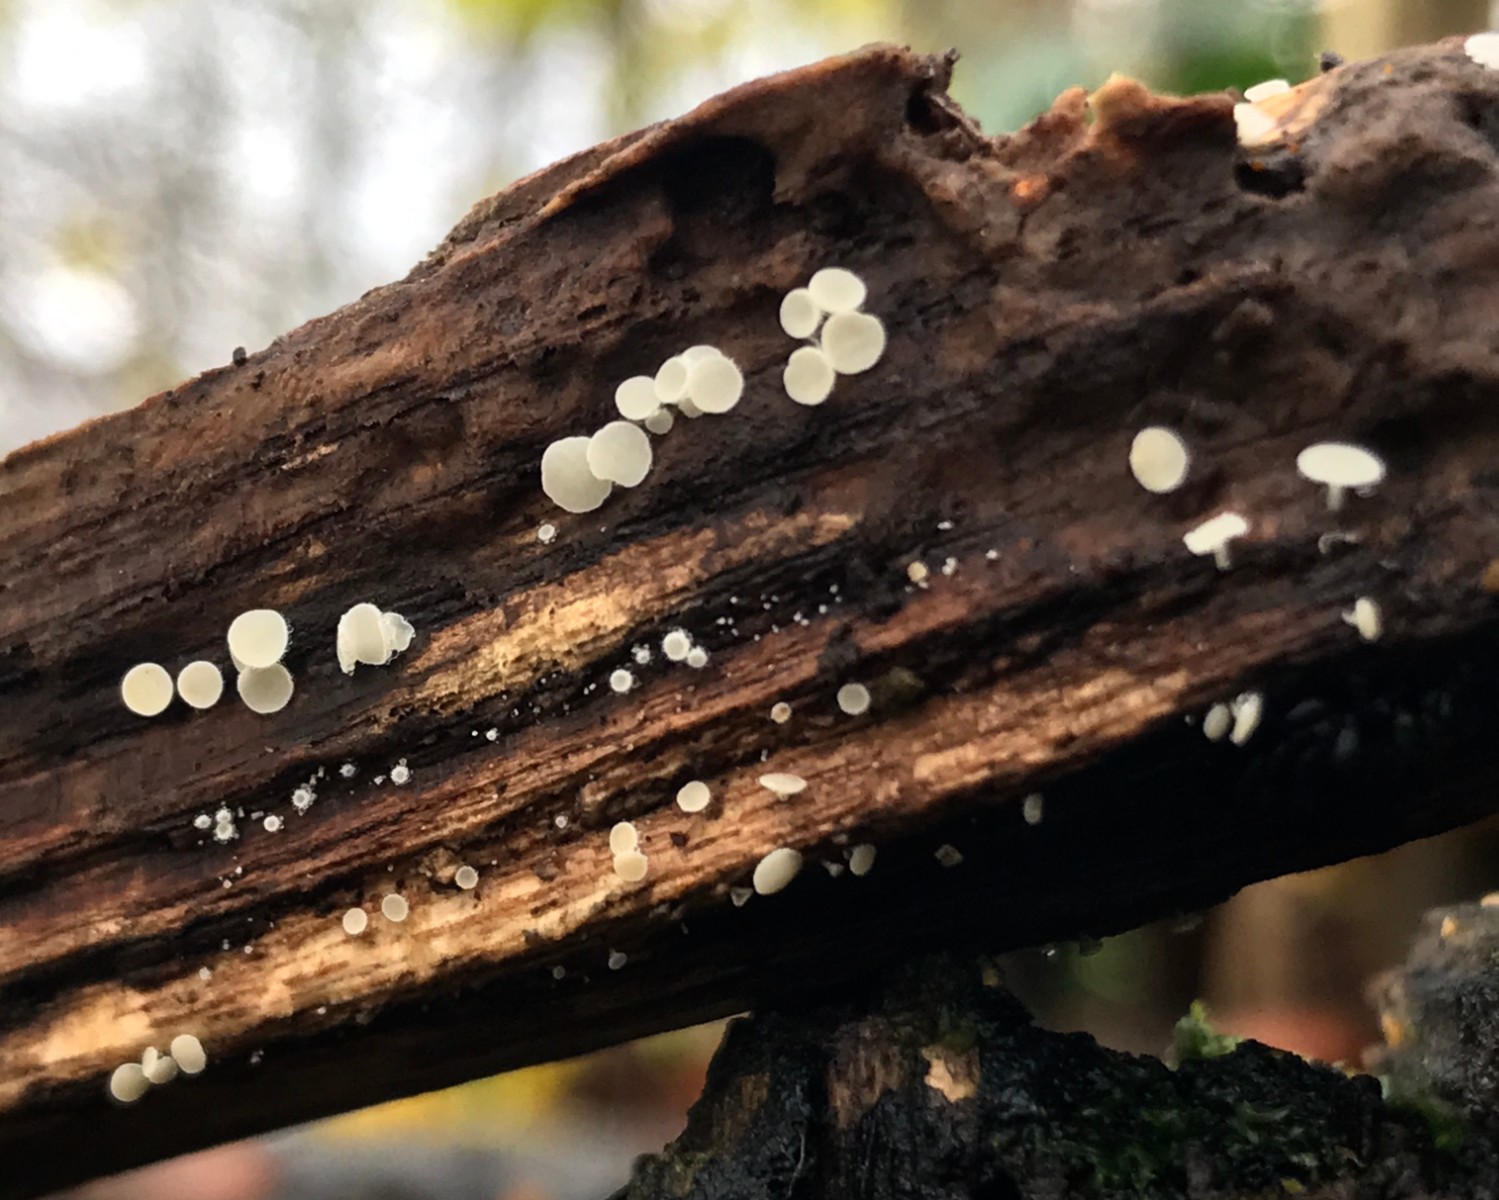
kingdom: Fungi
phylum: Ascomycota
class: Leotiomycetes
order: Helotiales
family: Lachnaceae
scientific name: Lachnaceae
